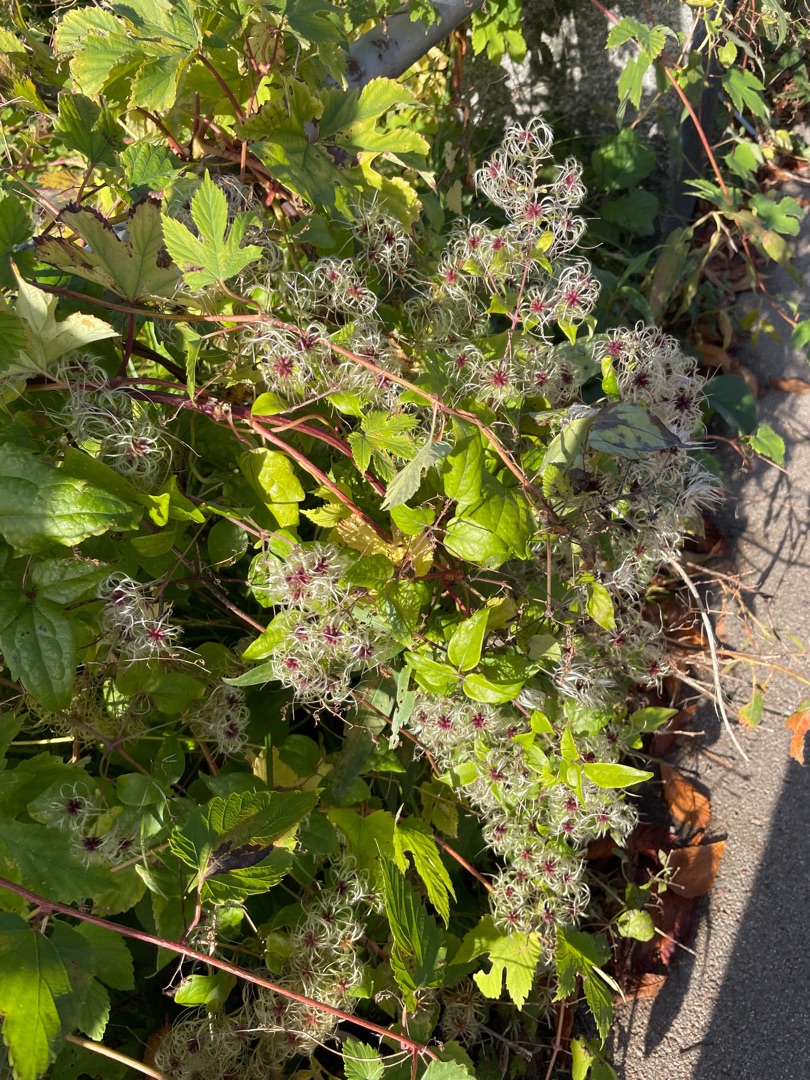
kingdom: Plantae
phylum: Tracheophyta
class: Magnoliopsida
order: Ranunculales
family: Ranunculaceae
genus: Clematis
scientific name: Clematis vitalba
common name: Skovranke
